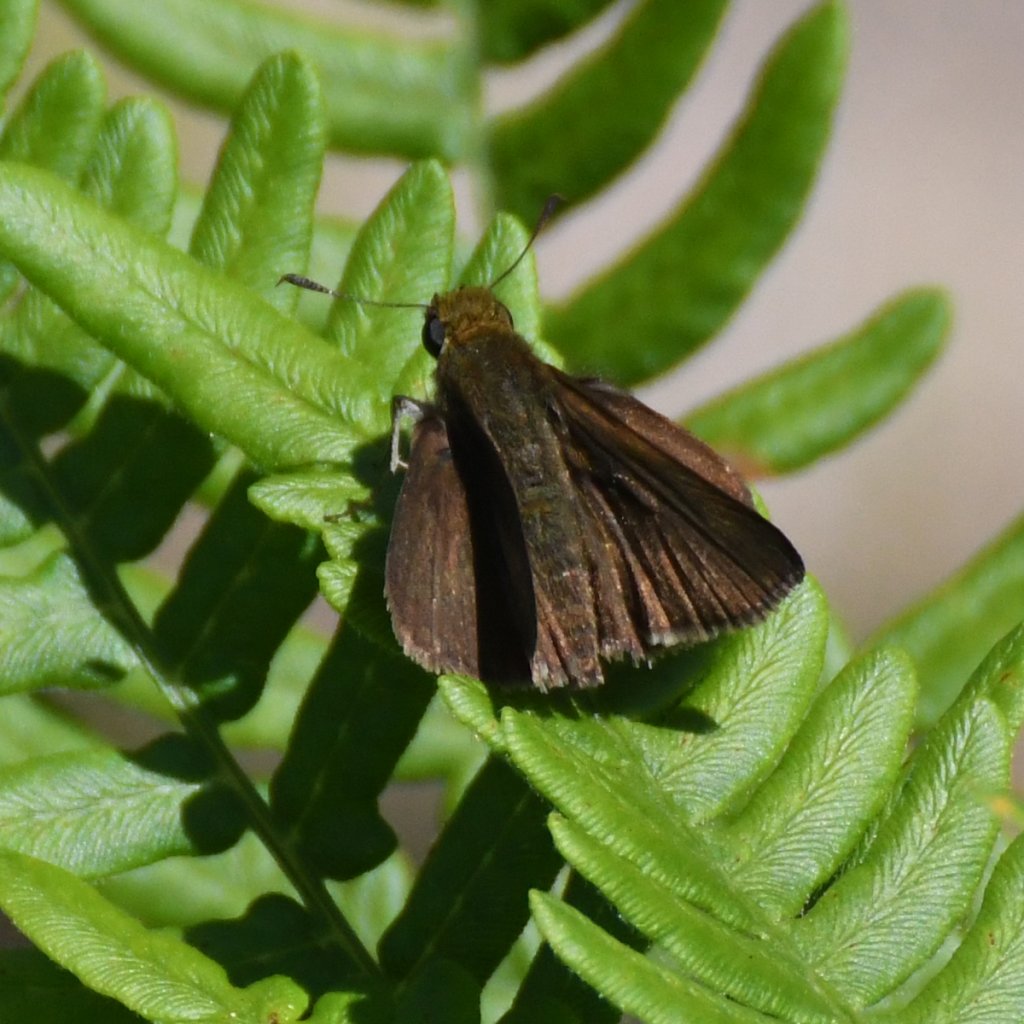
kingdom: Animalia
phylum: Arthropoda
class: Insecta
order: Lepidoptera
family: Hesperiidae
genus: Euphyes
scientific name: Euphyes vestris
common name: Dun Skipper
